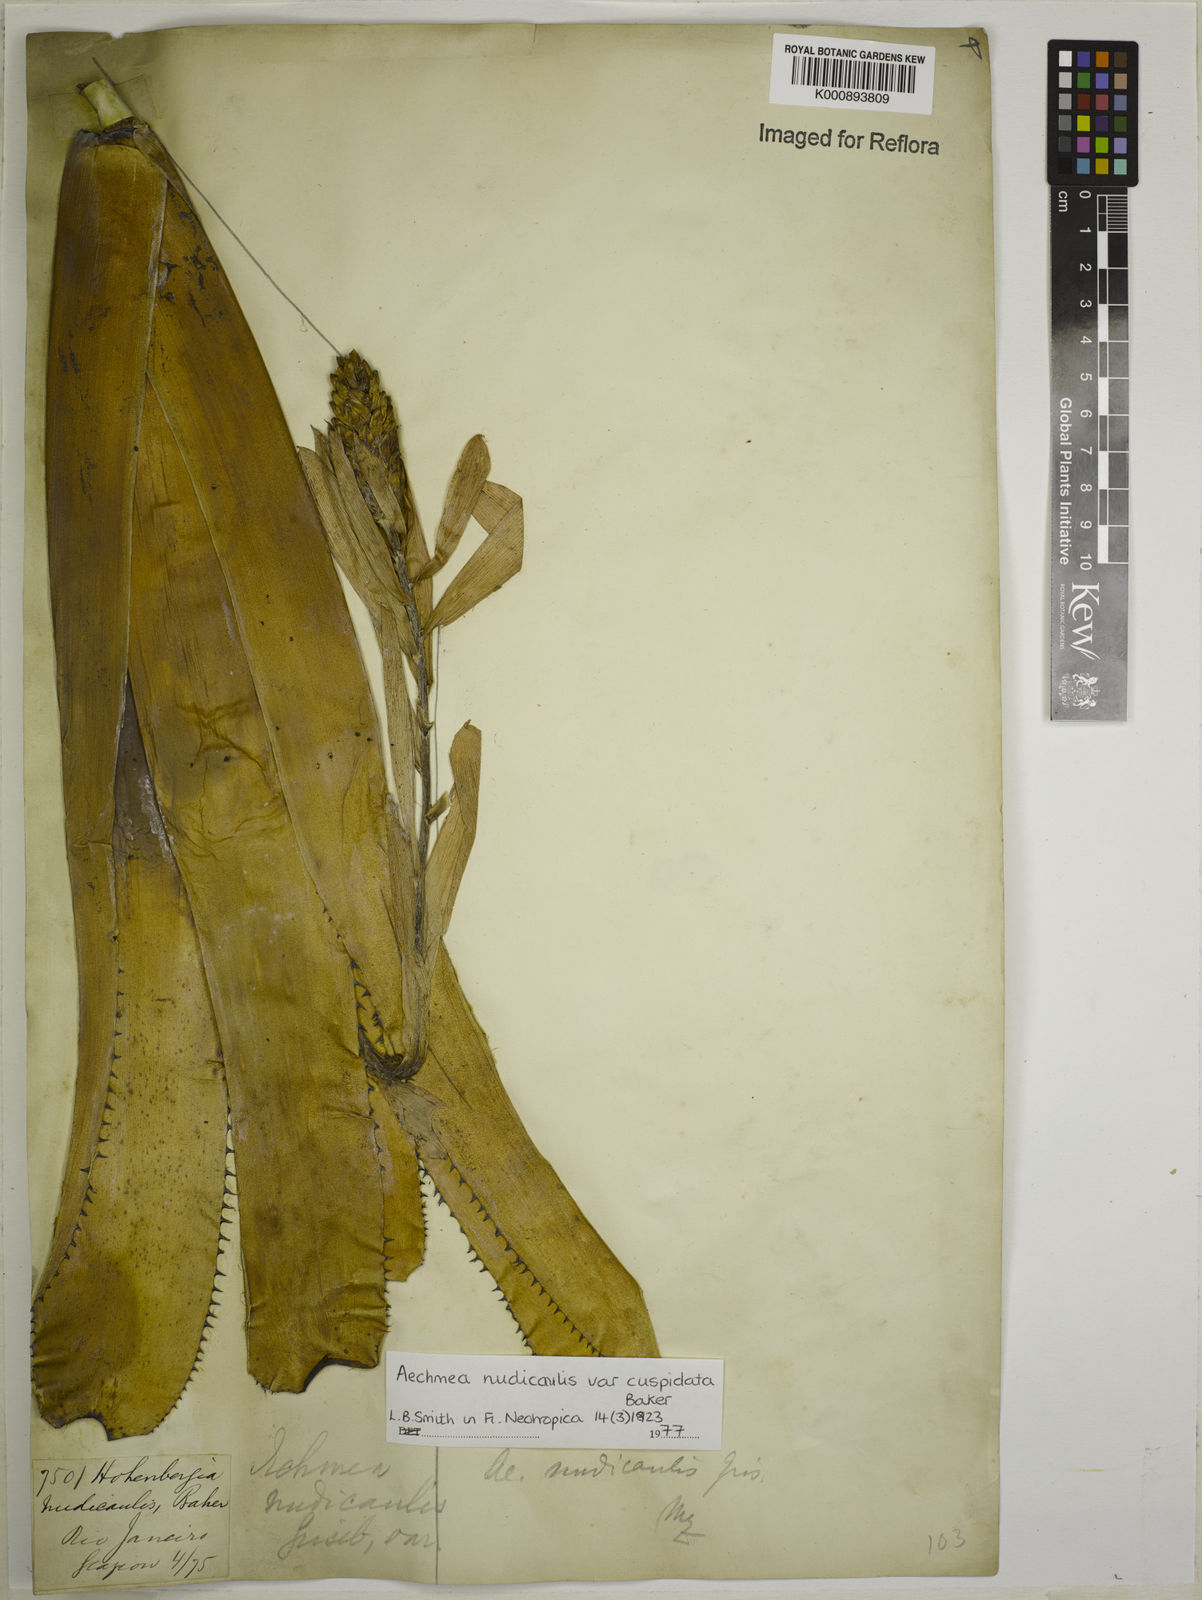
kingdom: Plantae
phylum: Tracheophyta
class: Liliopsida
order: Poales
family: Bromeliaceae
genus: Aechmea
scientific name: Aechmea nudicaulis
